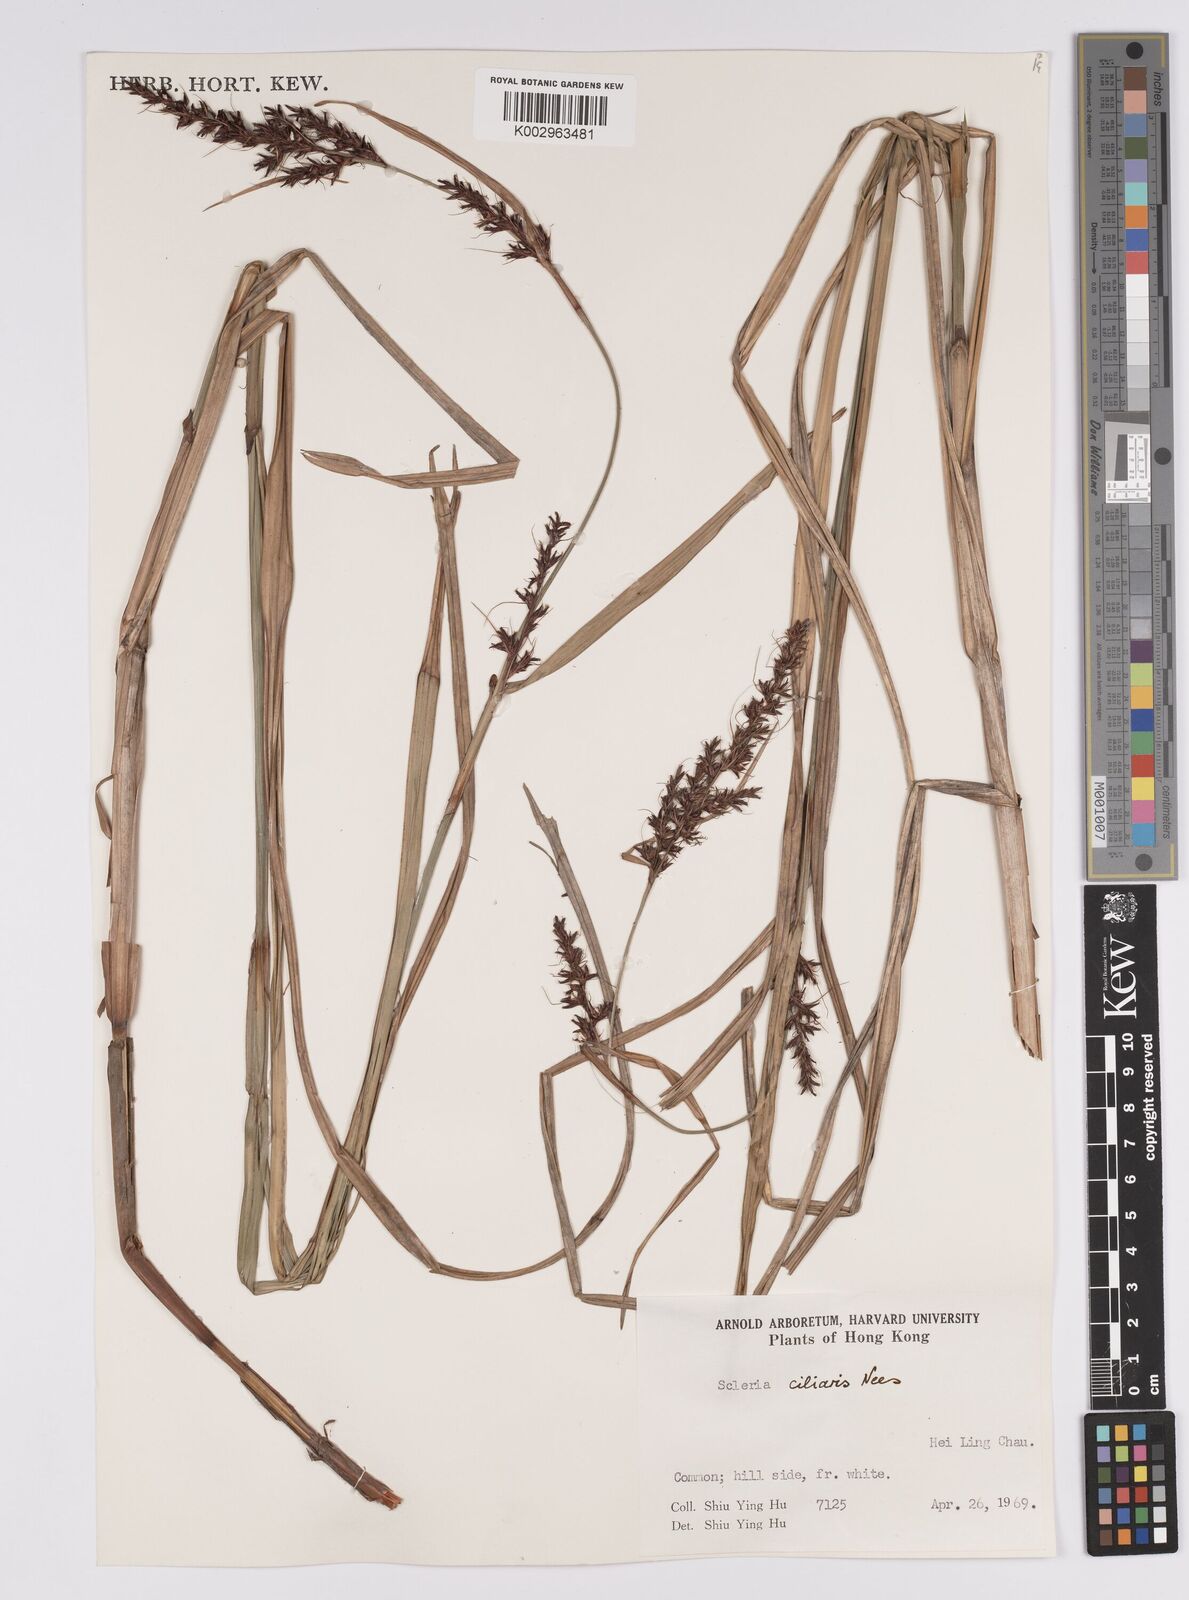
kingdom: Plantae
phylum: Tracheophyta
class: Liliopsida
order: Poales
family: Cyperaceae
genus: Scleria
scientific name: Scleria ciliaris
